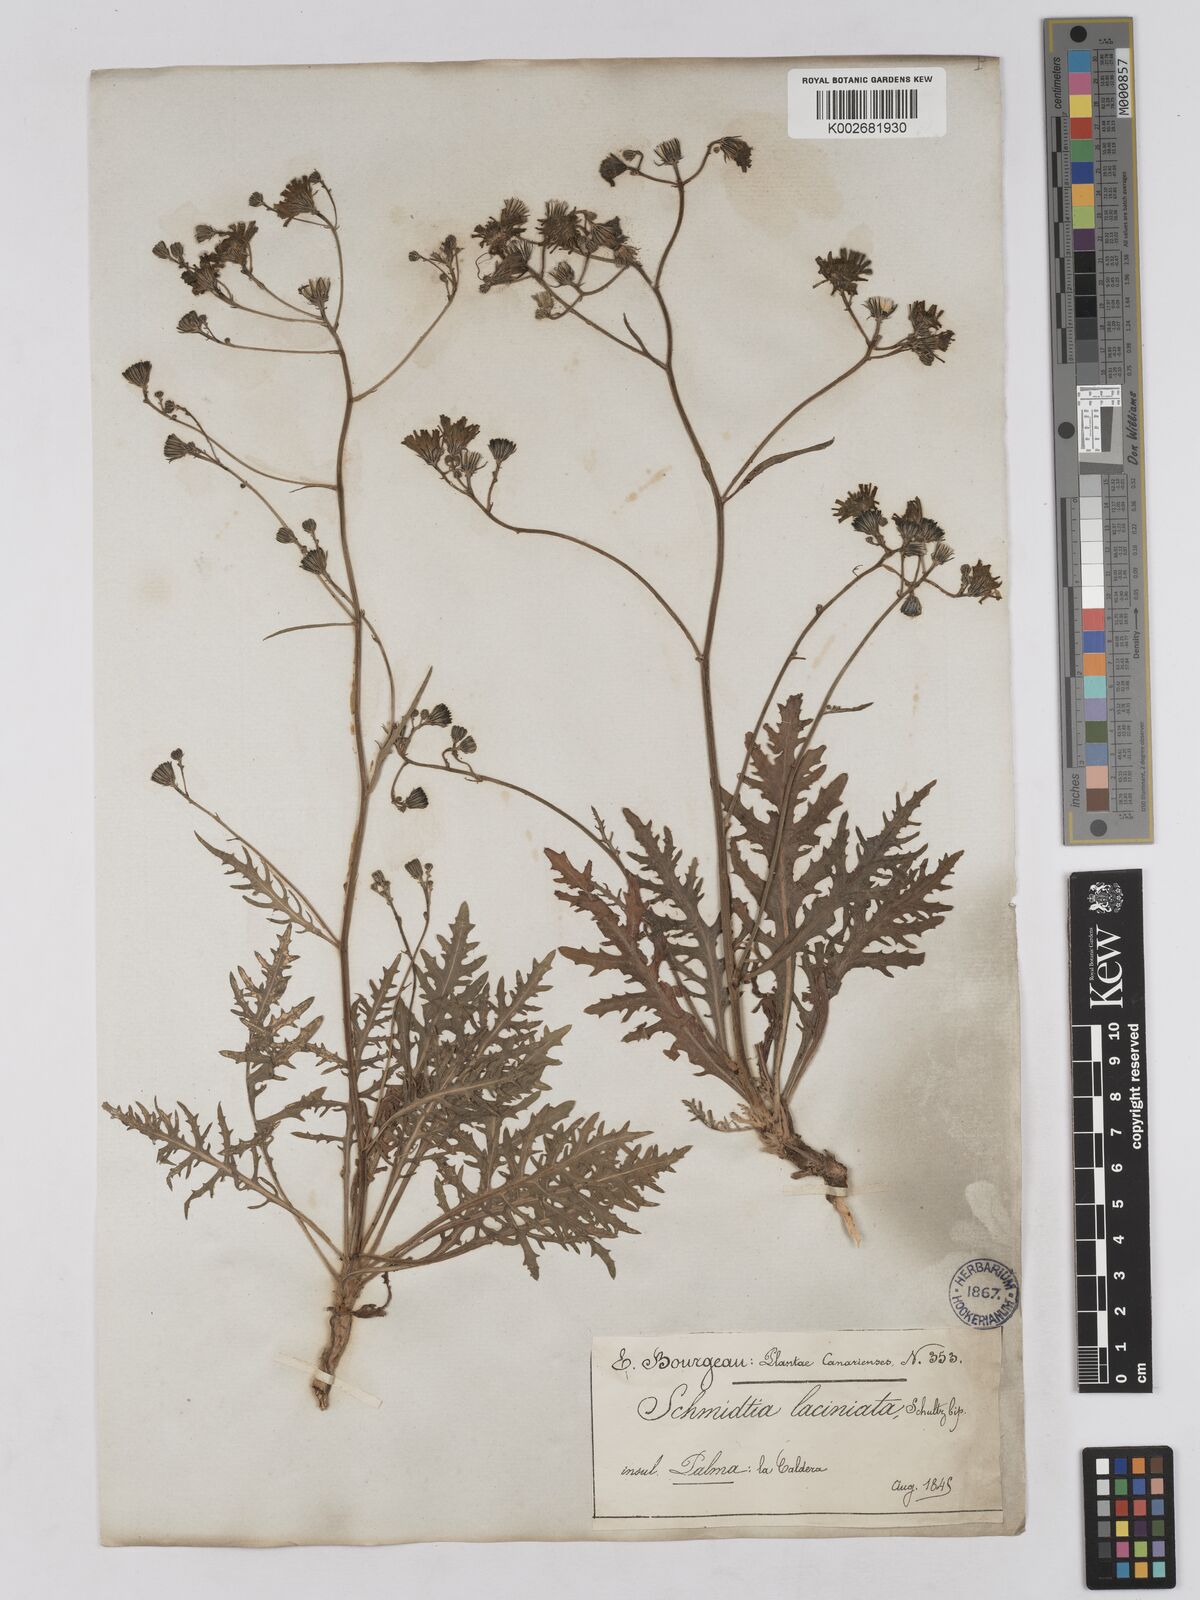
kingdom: Plantae
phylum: Tracheophyta
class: Magnoliopsida
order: Asterales
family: Asteraceae
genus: Tolpis
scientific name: Tolpis laciniata
